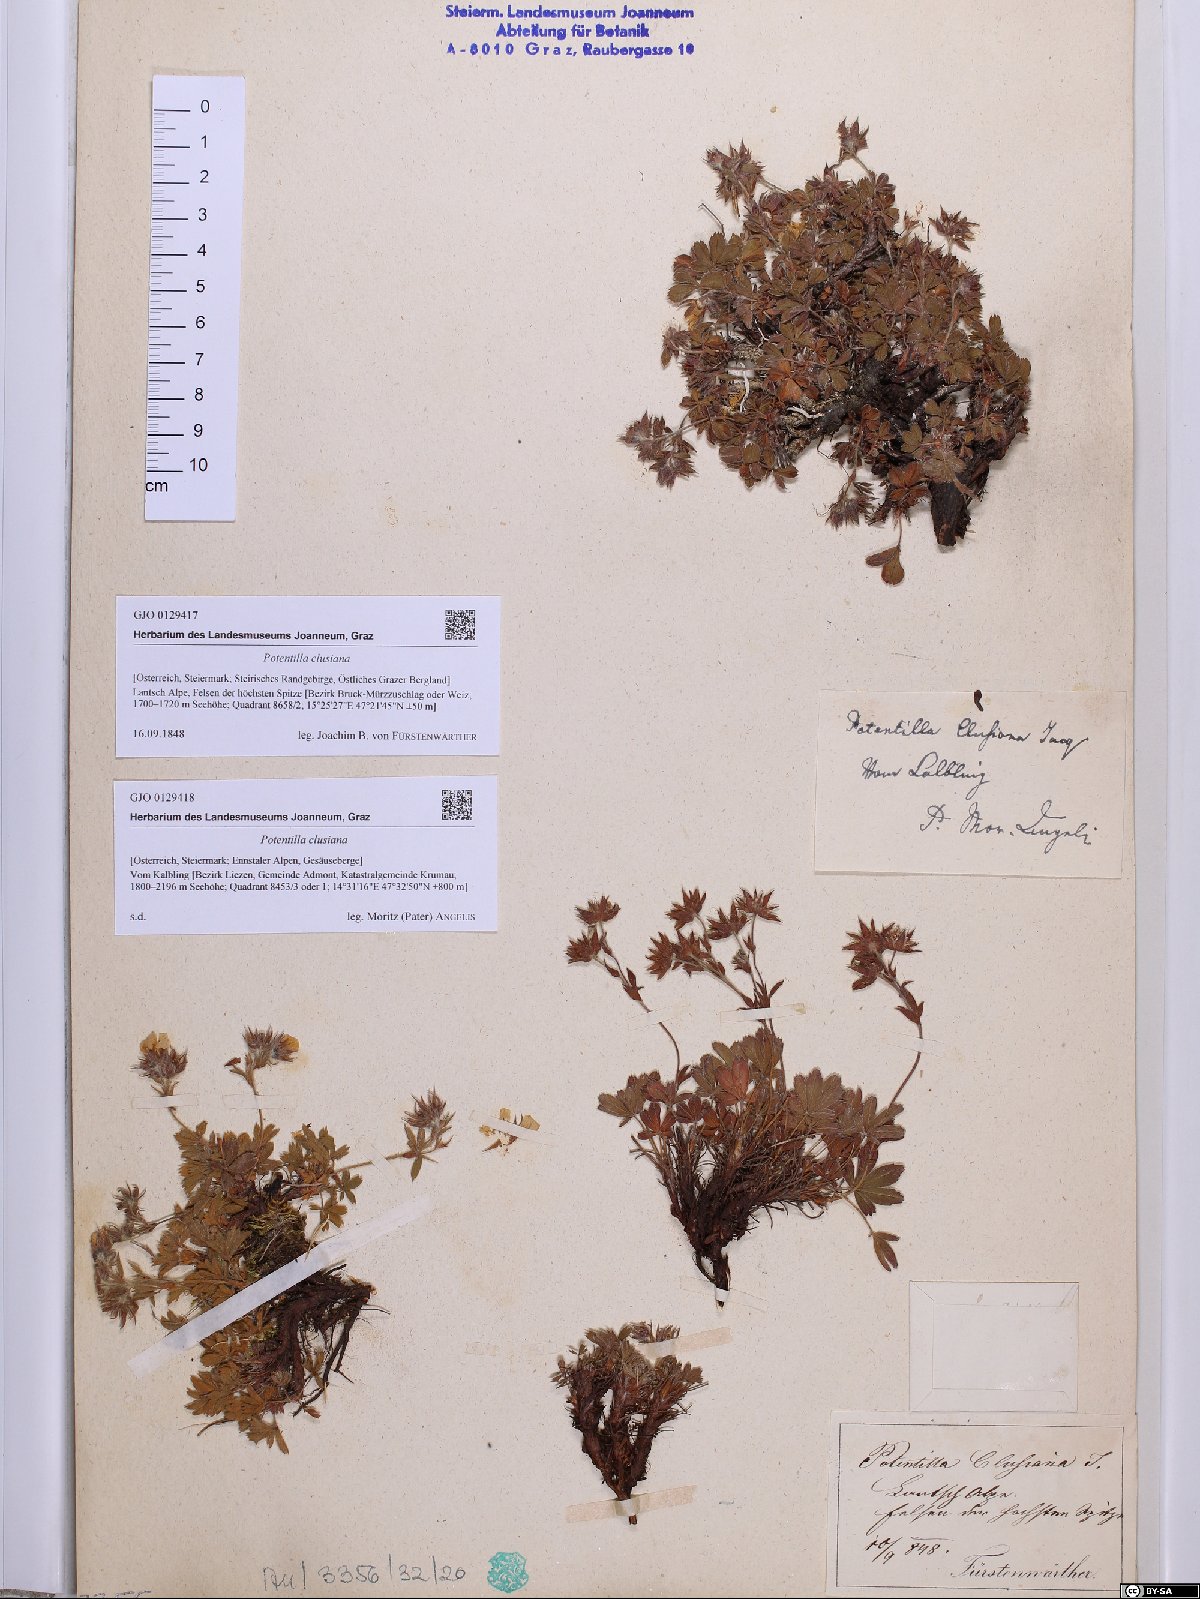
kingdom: Plantae
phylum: Tracheophyta
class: Magnoliopsida
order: Rosales
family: Rosaceae
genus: Potentilla
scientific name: Potentilla clusiana
